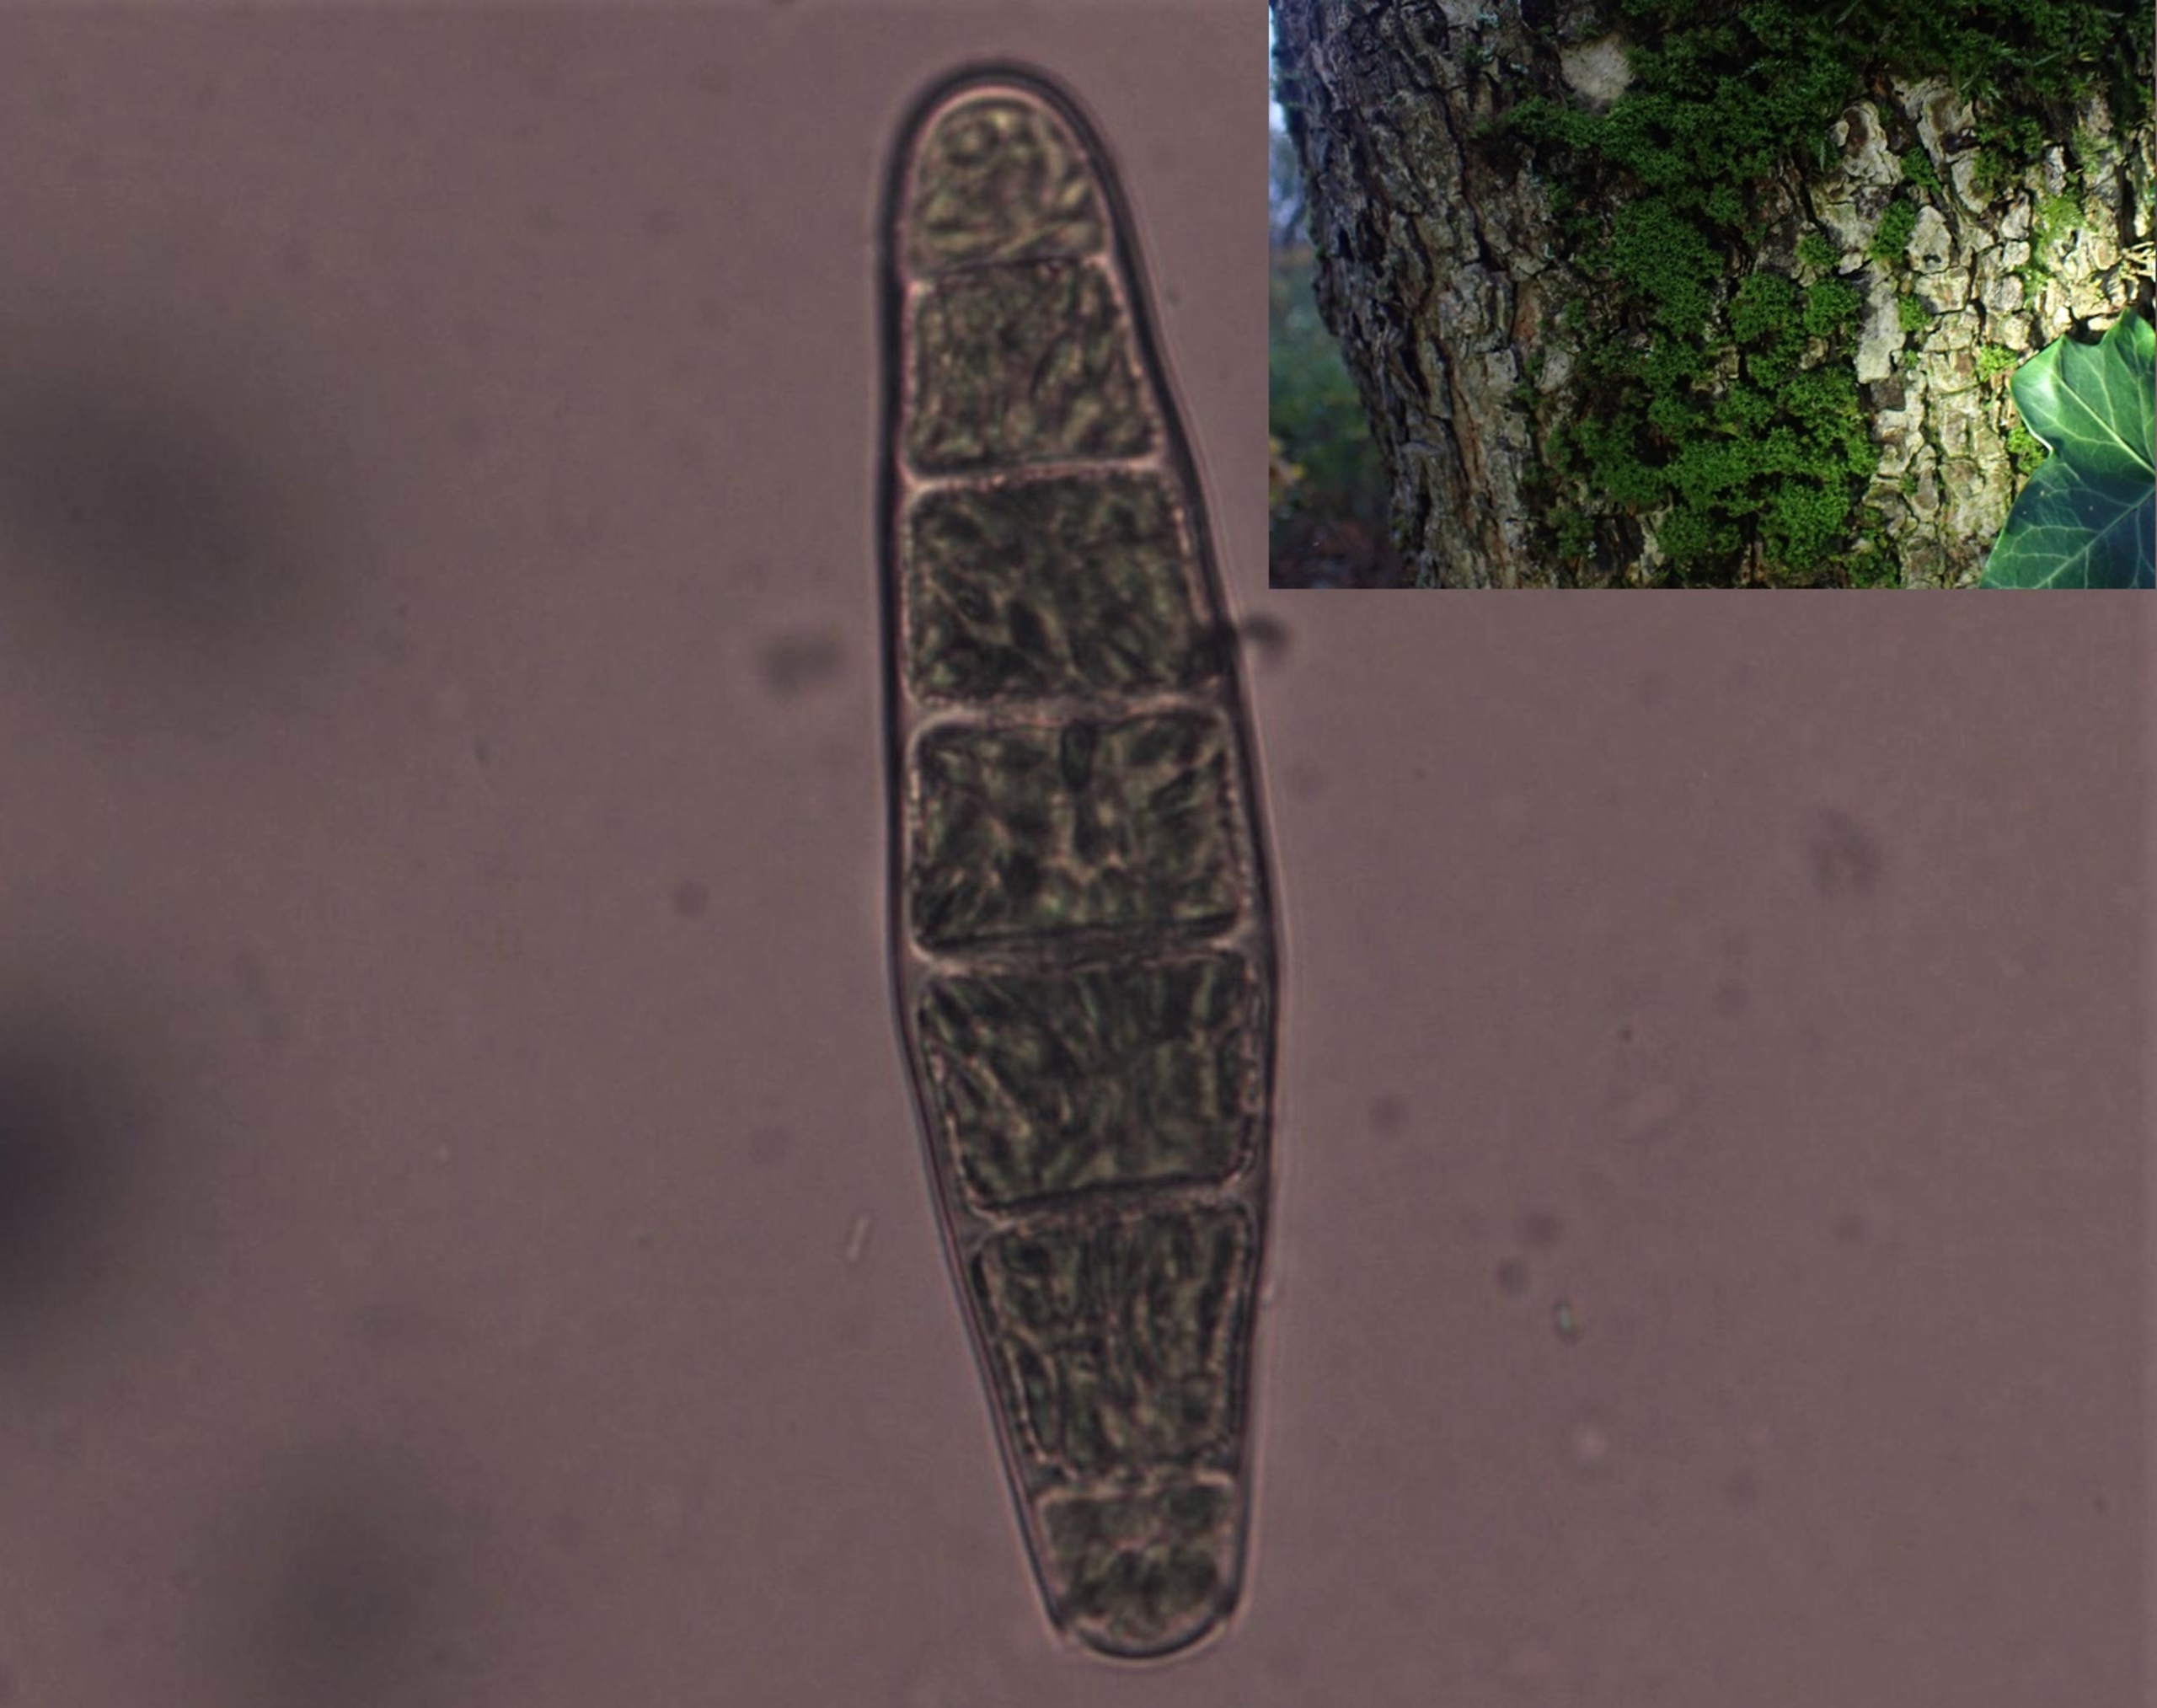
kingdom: Plantae
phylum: Bryophyta
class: Bryopsida
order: Orthotrichales
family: Orthotrichaceae
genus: Zygodon
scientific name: Zygodon conoideus
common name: Tand-køllemos
